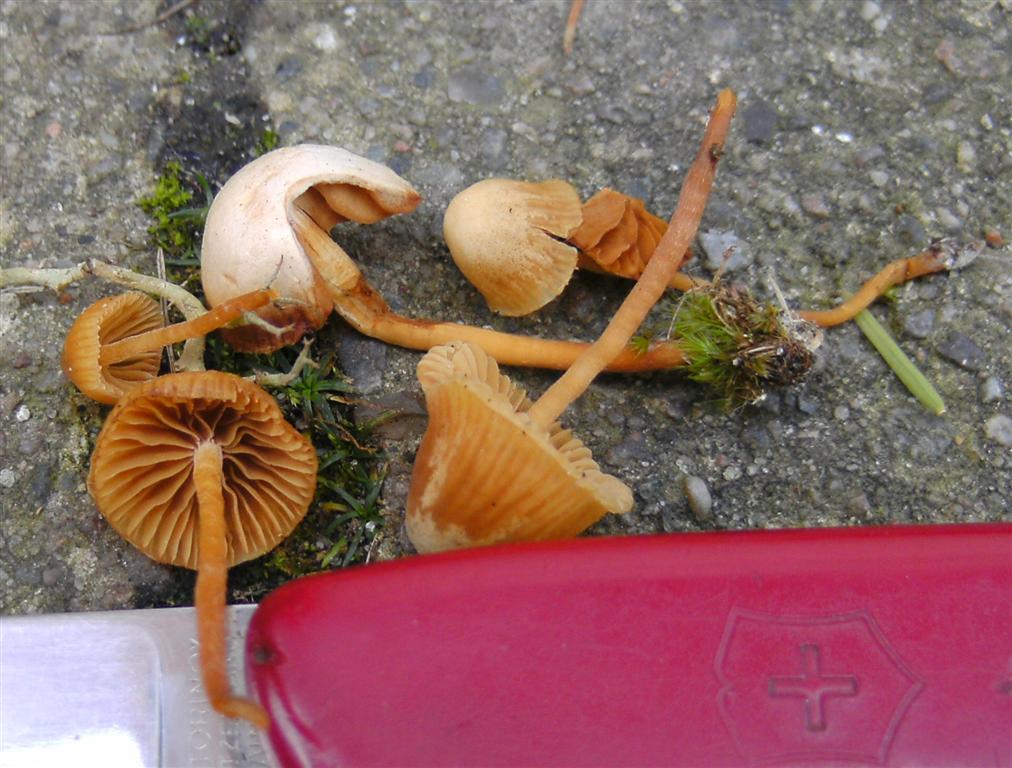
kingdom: Fungi
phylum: Basidiomycota
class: Agaricomycetes
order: Agaricales
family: Hymenogastraceae
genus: Galerina
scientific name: Galerina hypnorum
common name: mos-hjelmhat
